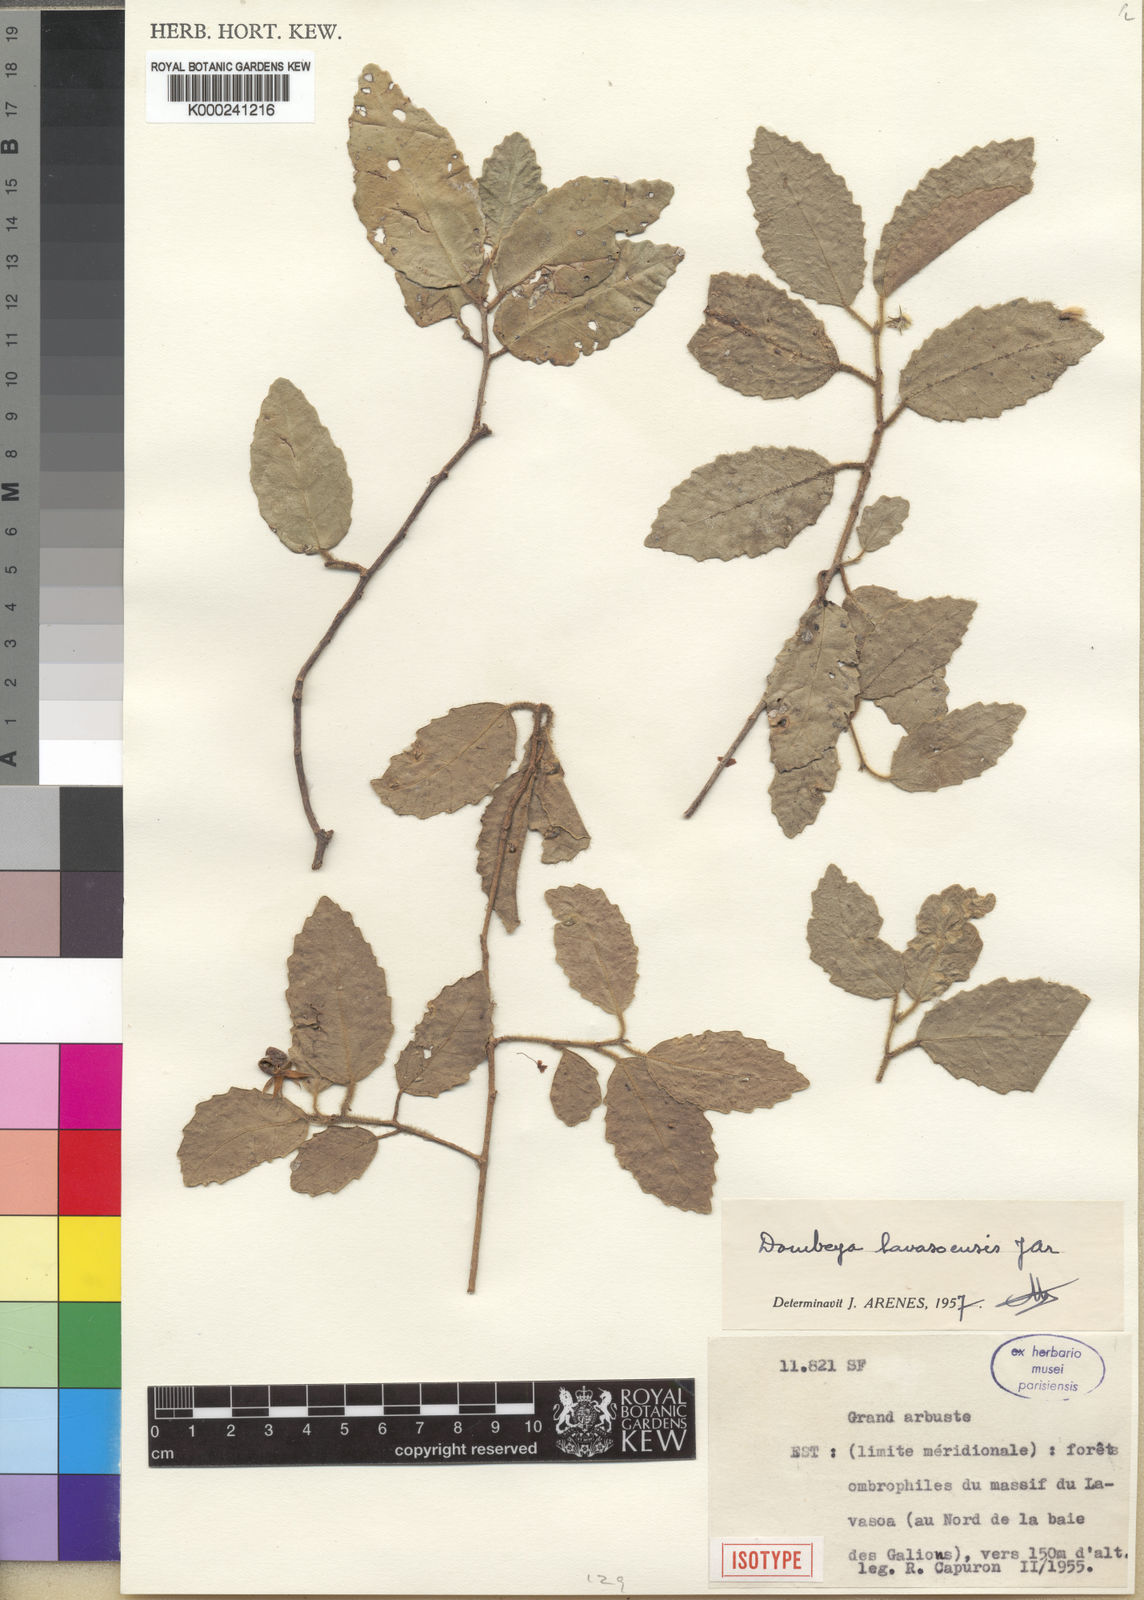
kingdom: Plantae
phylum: Tracheophyta
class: Magnoliopsida
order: Malvales
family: Malvaceae
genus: Dombeya
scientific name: Dombeya lavasoensis
